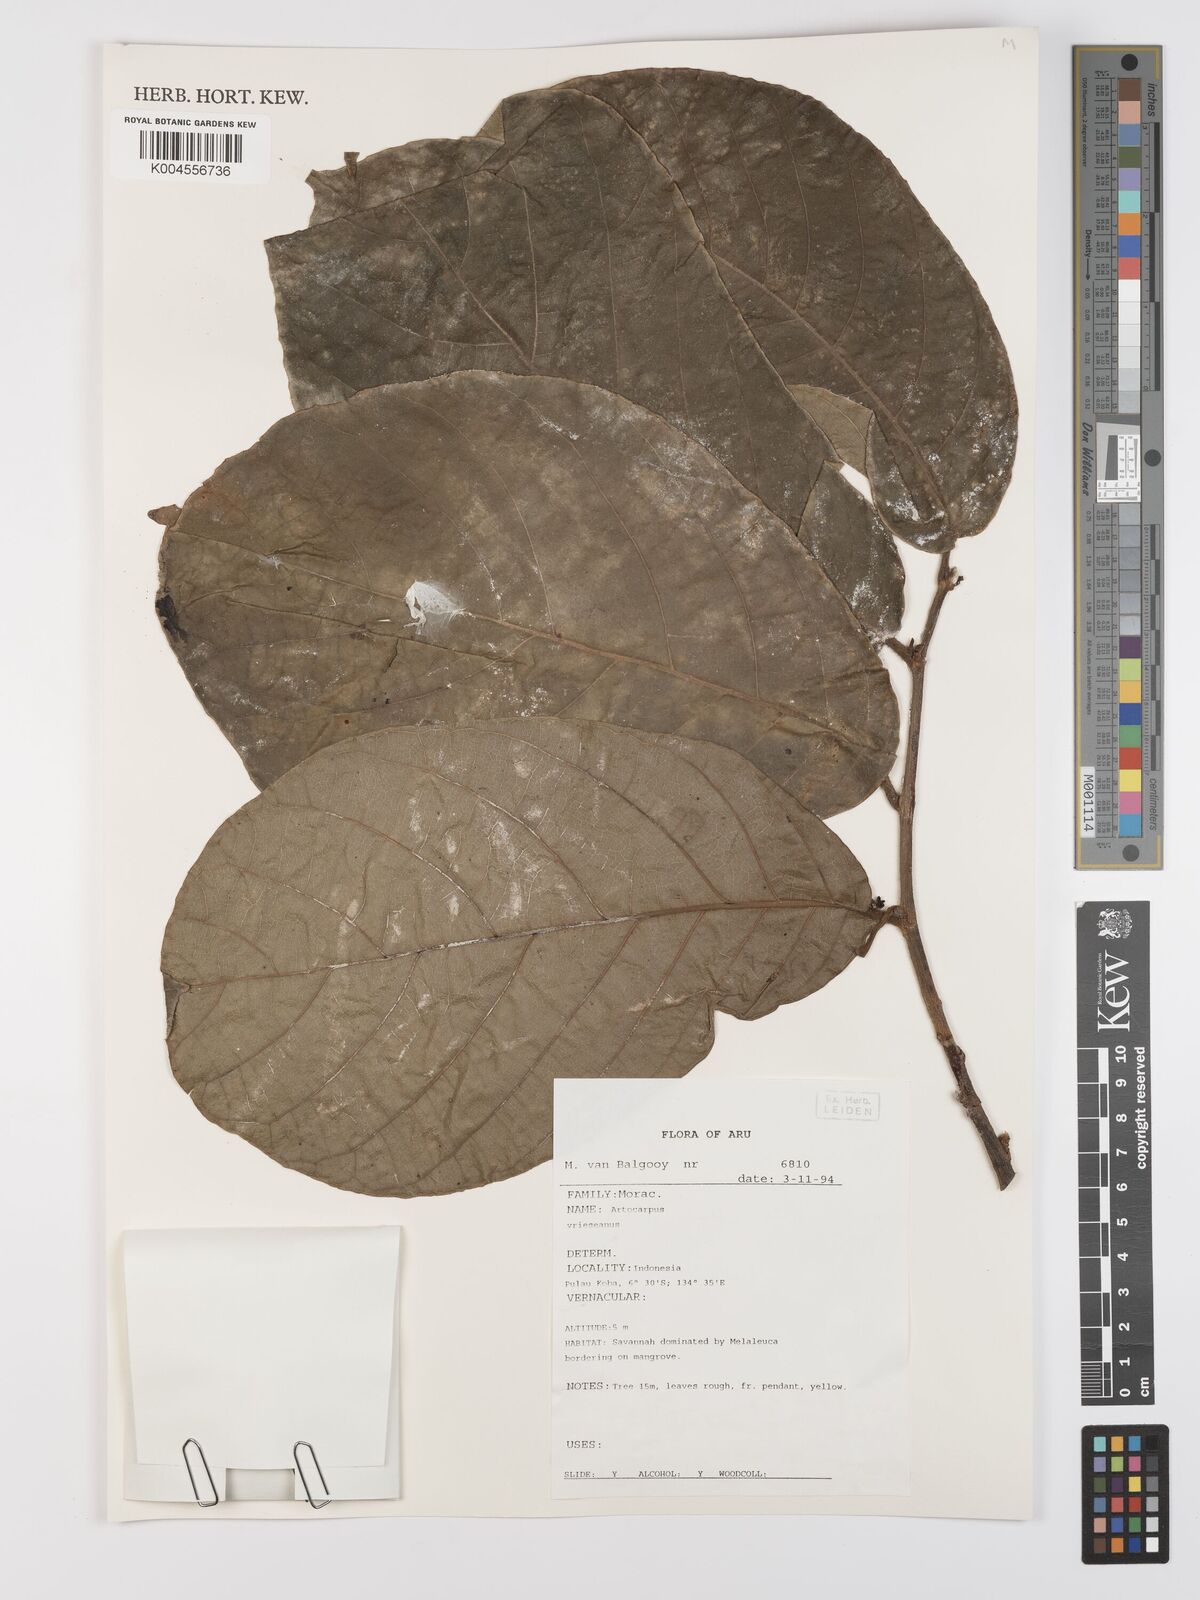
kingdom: Plantae
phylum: Tracheophyta
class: Magnoliopsida
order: Rosales
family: Moraceae
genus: Artocarpus
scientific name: Artocarpus vrieseanus
